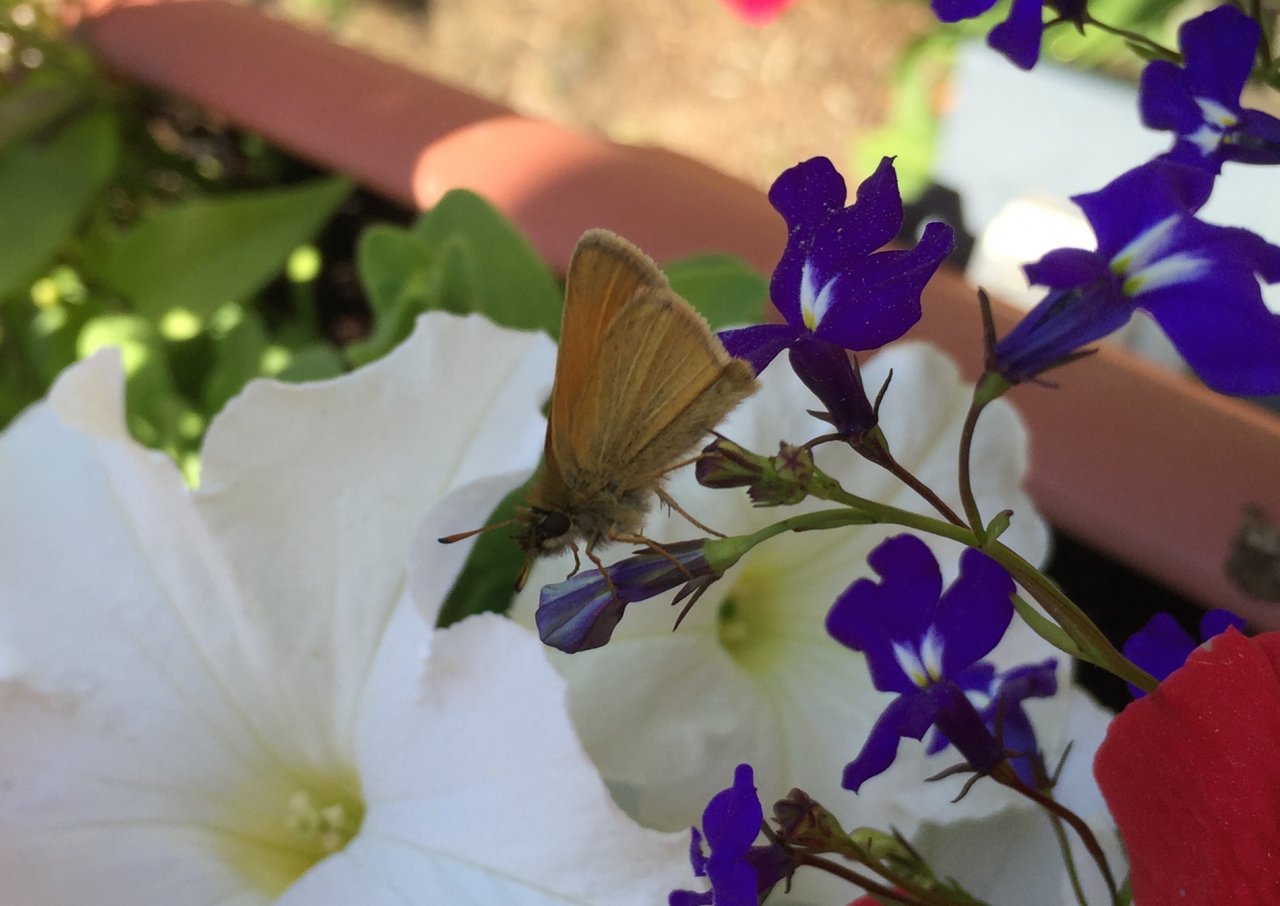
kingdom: Animalia
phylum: Arthropoda
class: Insecta
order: Lepidoptera
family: Hesperiidae
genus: Thymelicus
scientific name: Thymelicus lineola
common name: European Skipper
